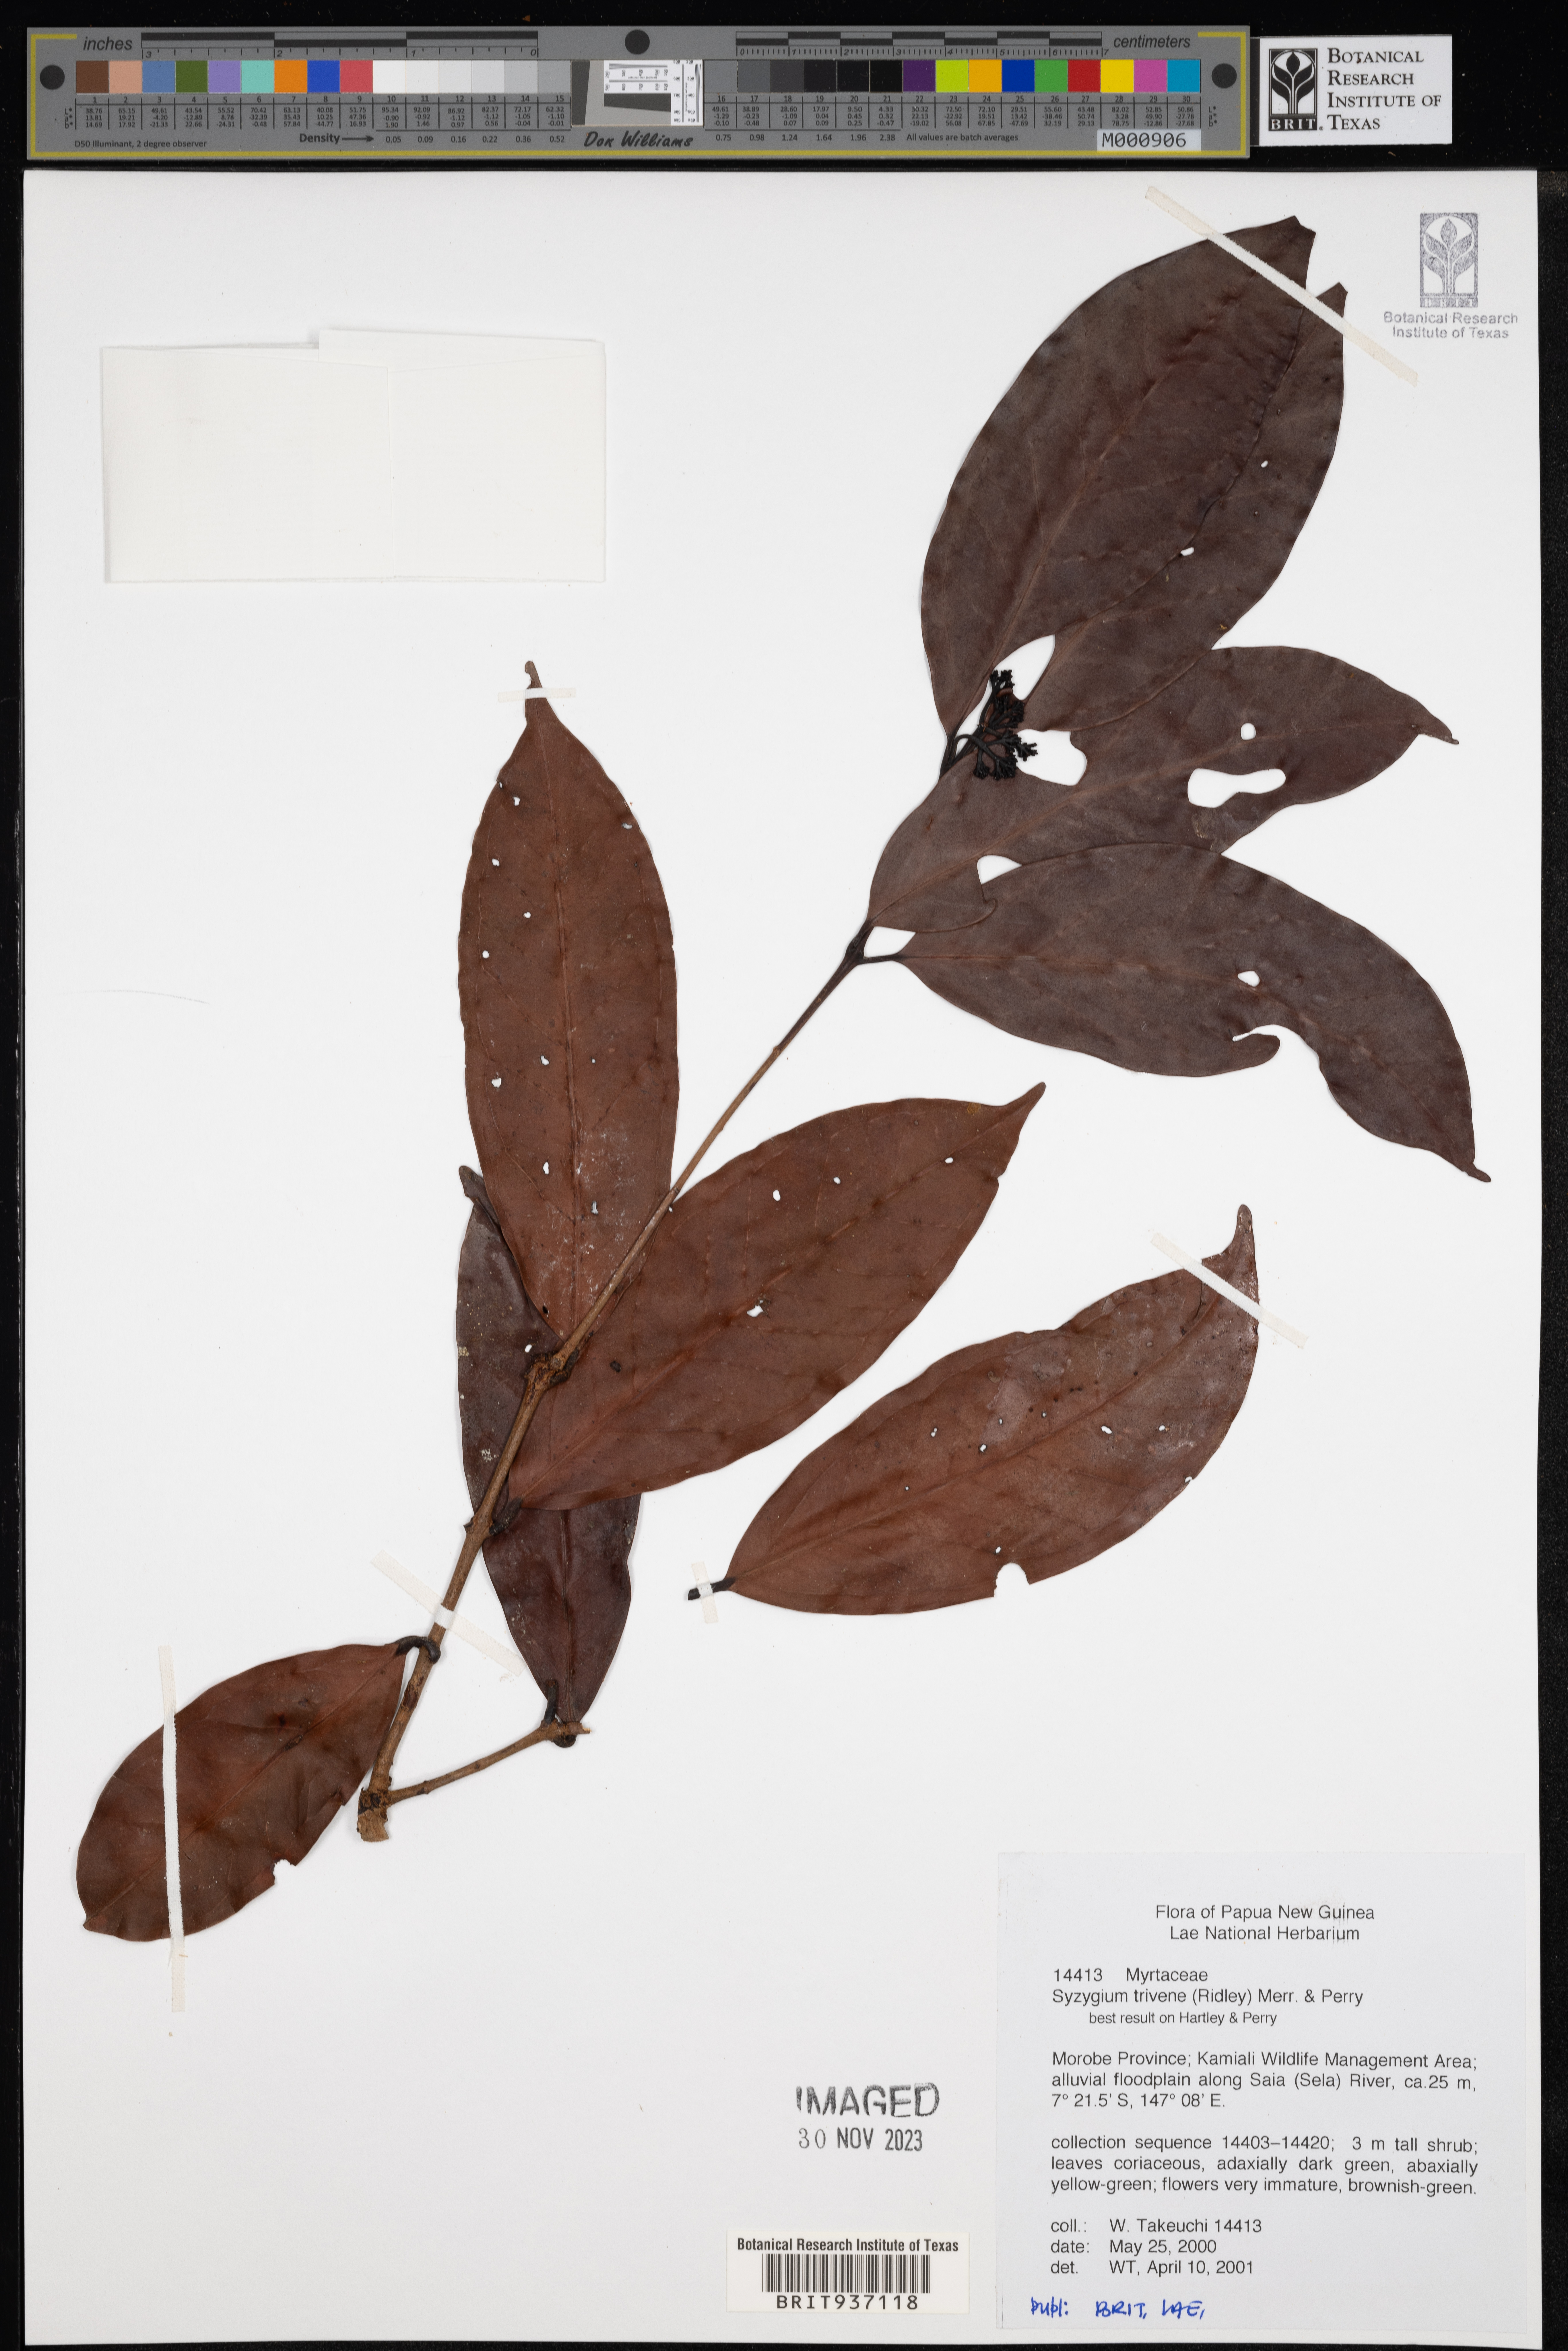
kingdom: Plantae
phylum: Tracheophyta
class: Magnoliopsida
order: Myrtales
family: Myrtaceae
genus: Syzygium
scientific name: Syzygium trivene
